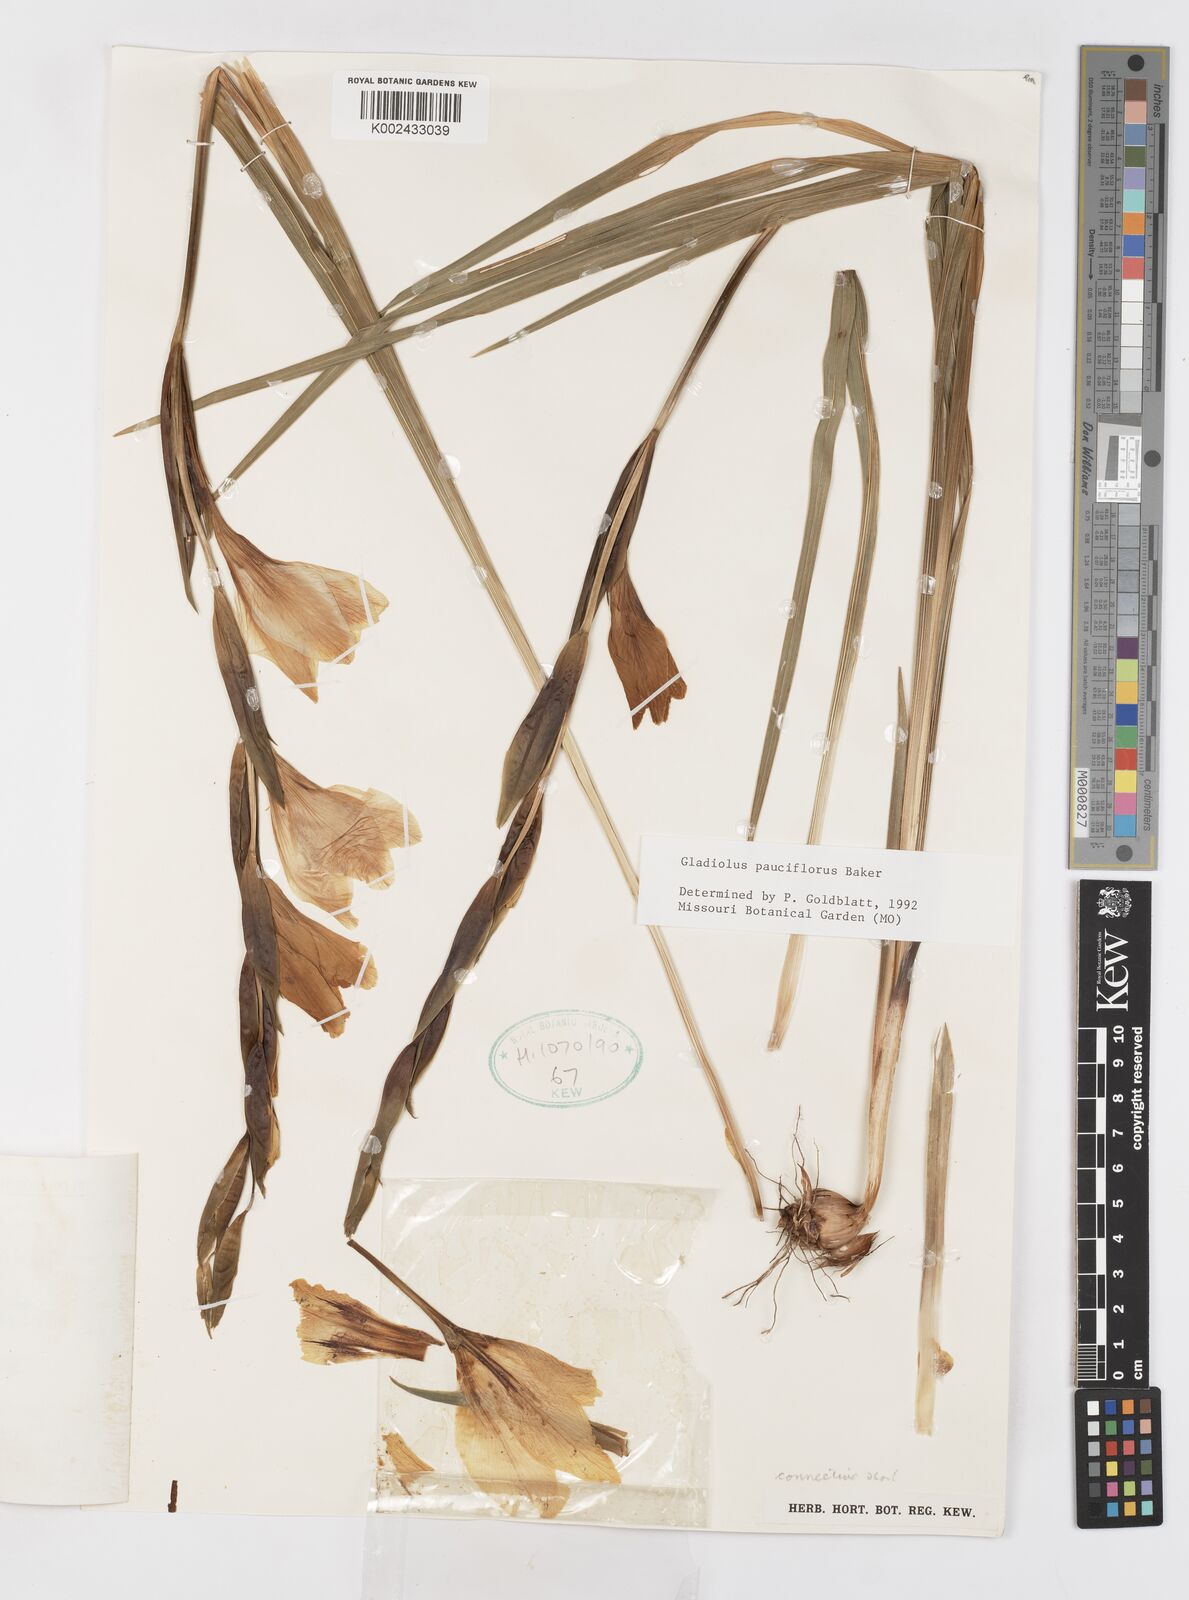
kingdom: Plantae
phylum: Tracheophyta
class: Liliopsida
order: Asparagales
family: Iridaceae
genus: Gladiolus
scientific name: Gladiolus pauciflorus
